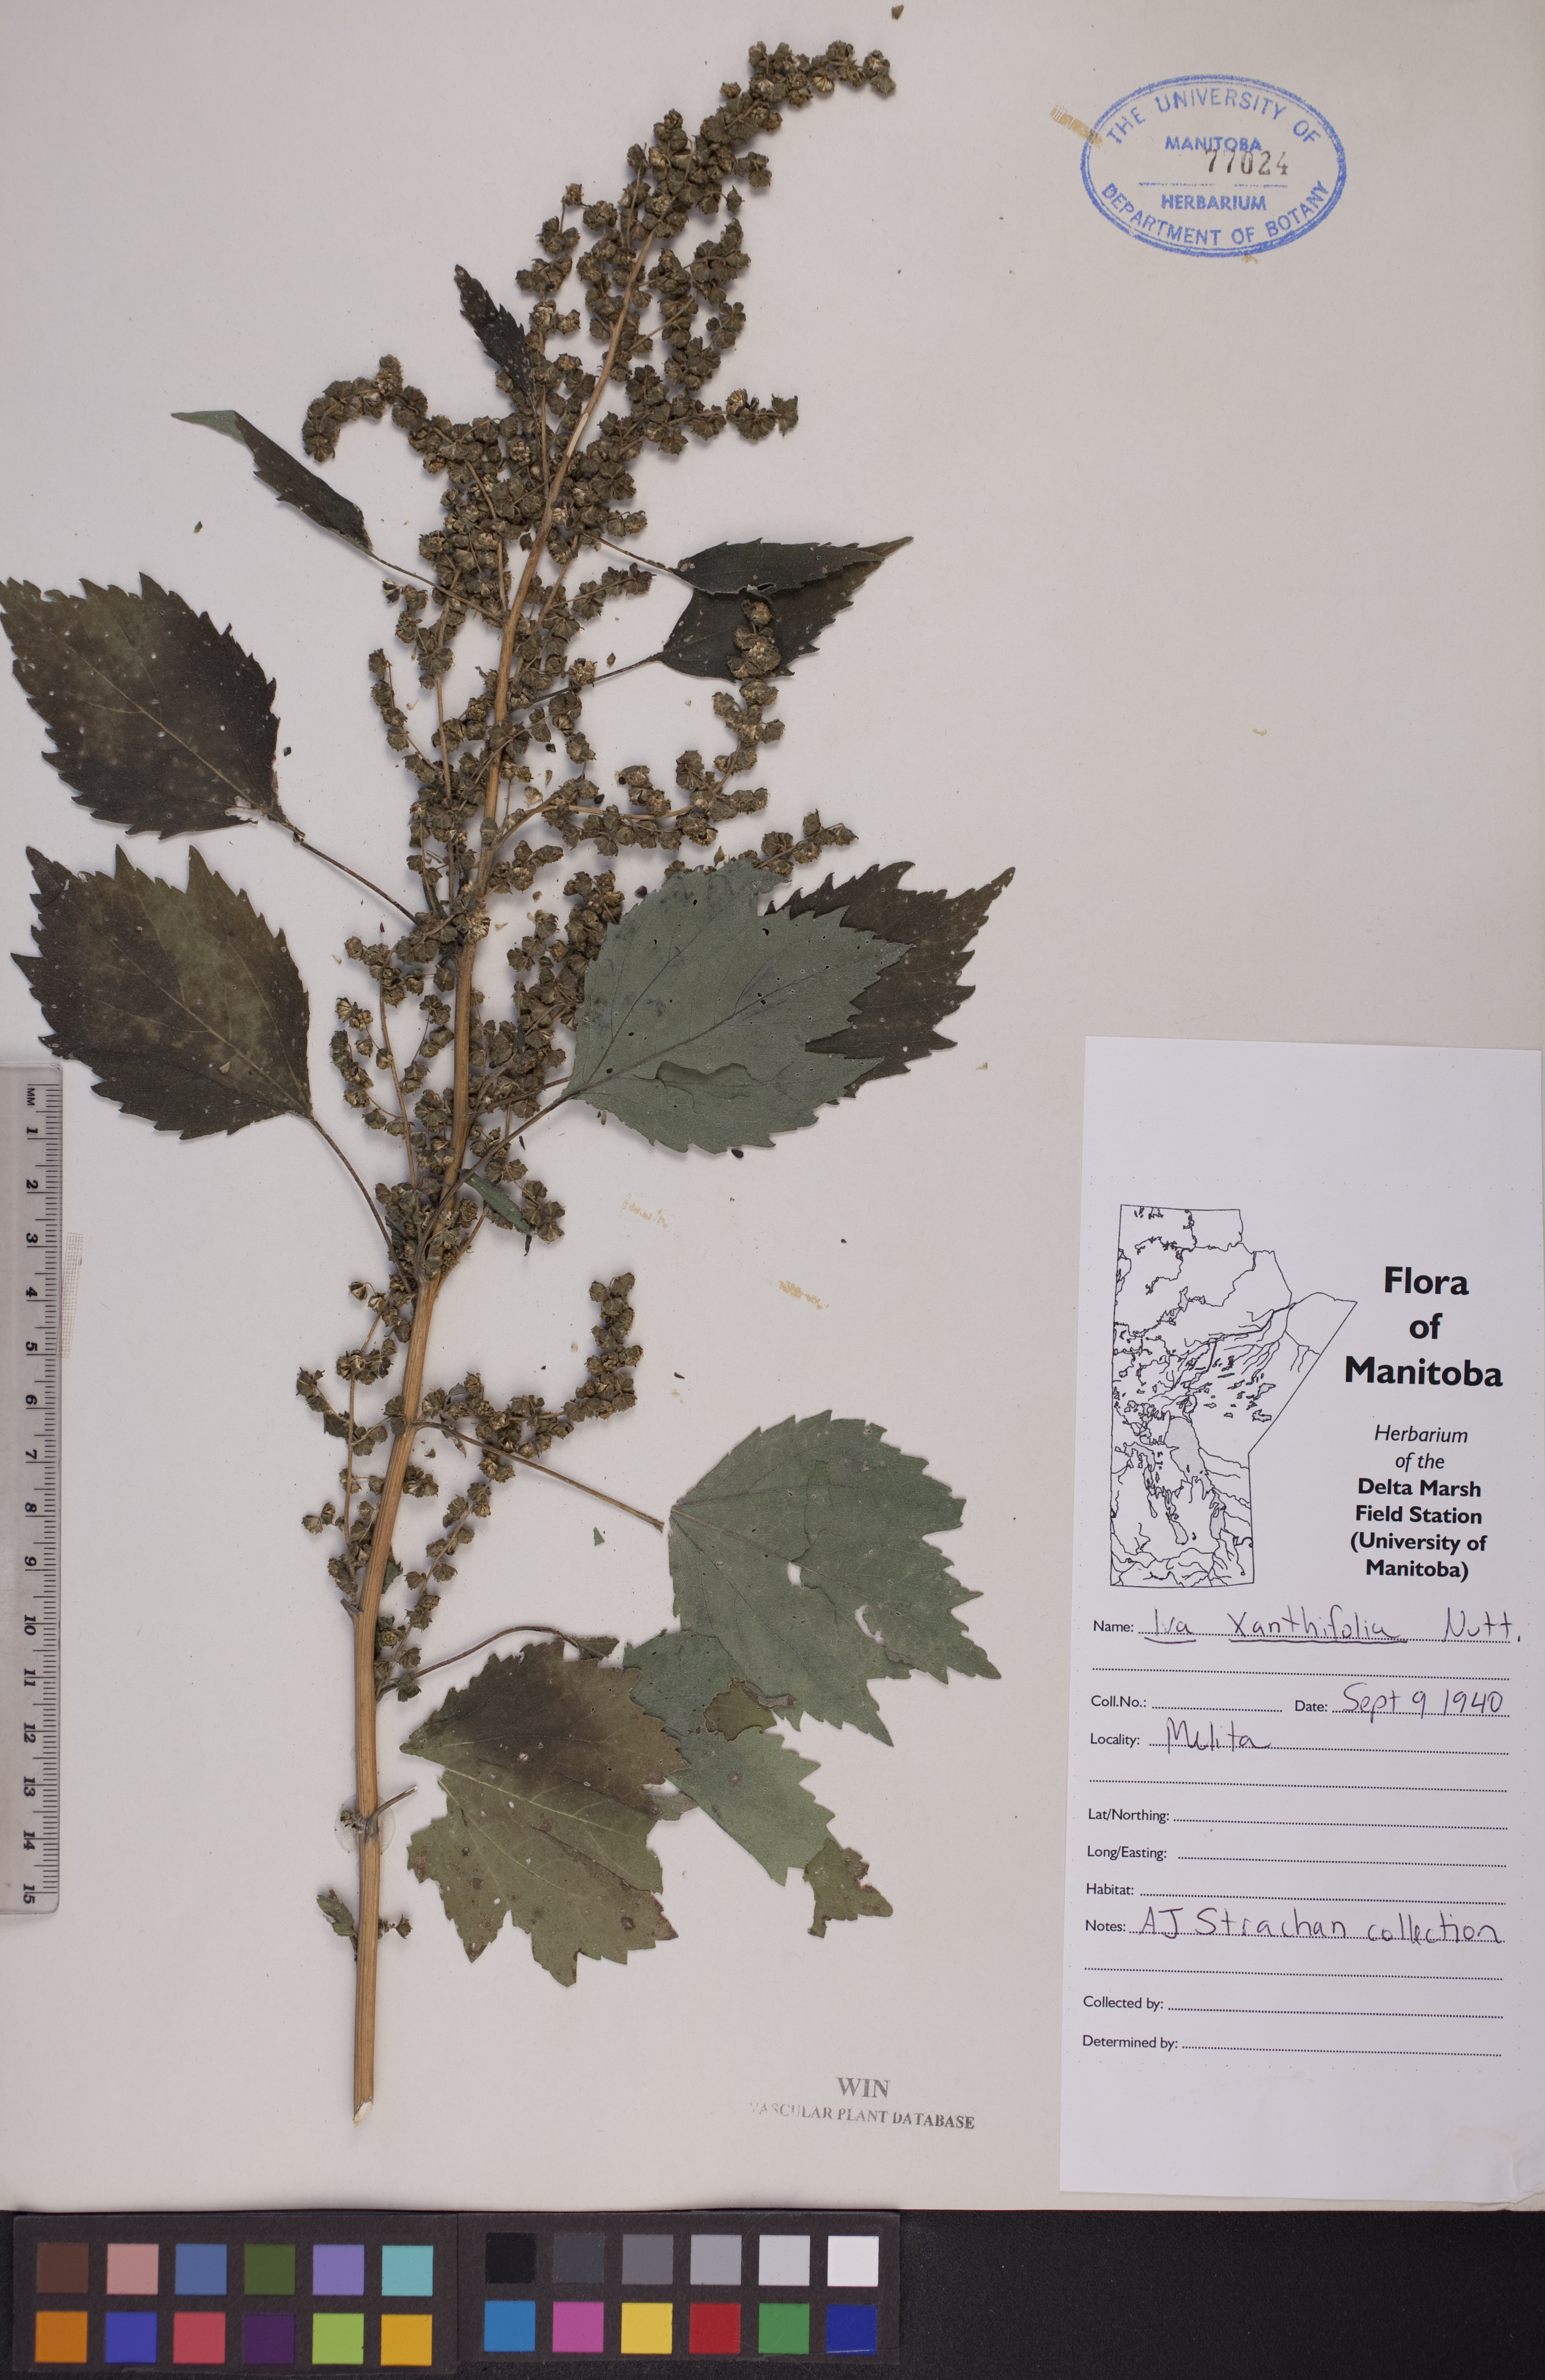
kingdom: Plantae
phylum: Tracheophyta
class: Magnoliopsida
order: Asterales
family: Asteraceae
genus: Cyclachaena
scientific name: Cyclachaena xanthiifolia
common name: Giant sumpweed
